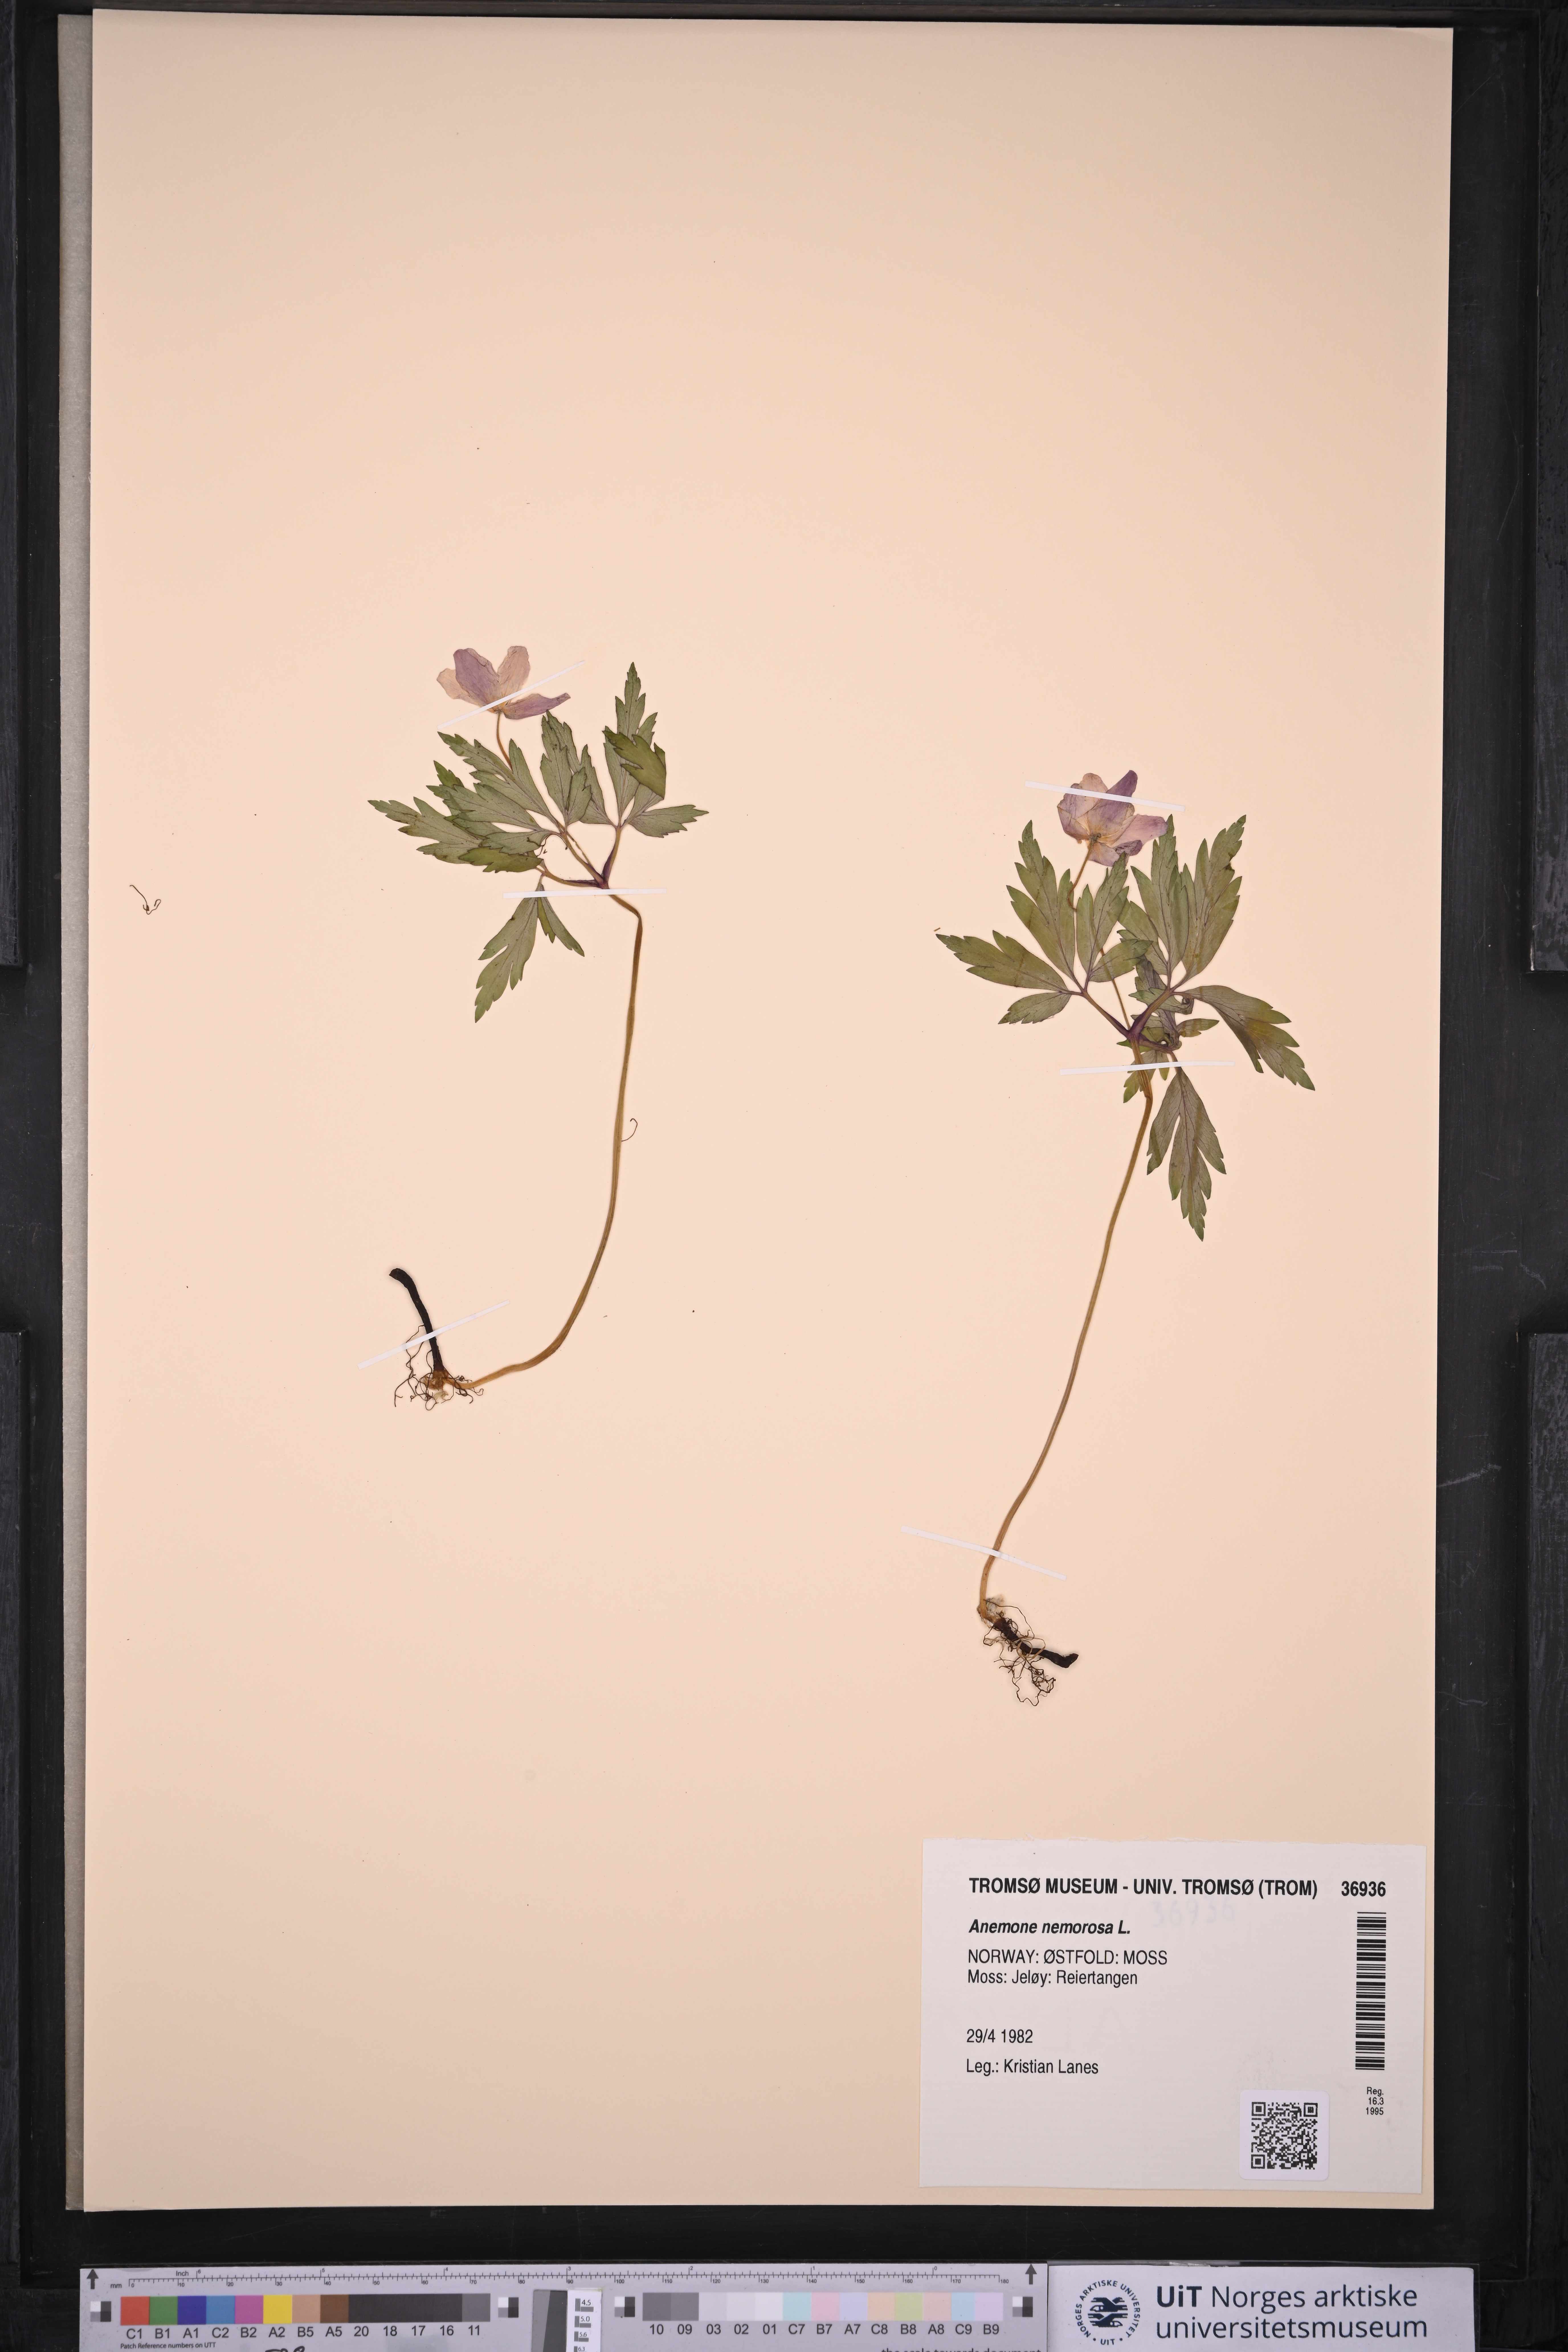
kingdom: Plantae
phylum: Tracheophyta
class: Magnoliopsida
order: Ranunculales
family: Ranunculaceae
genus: Anemone
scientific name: Anemone nemorosa
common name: Wood anemone
